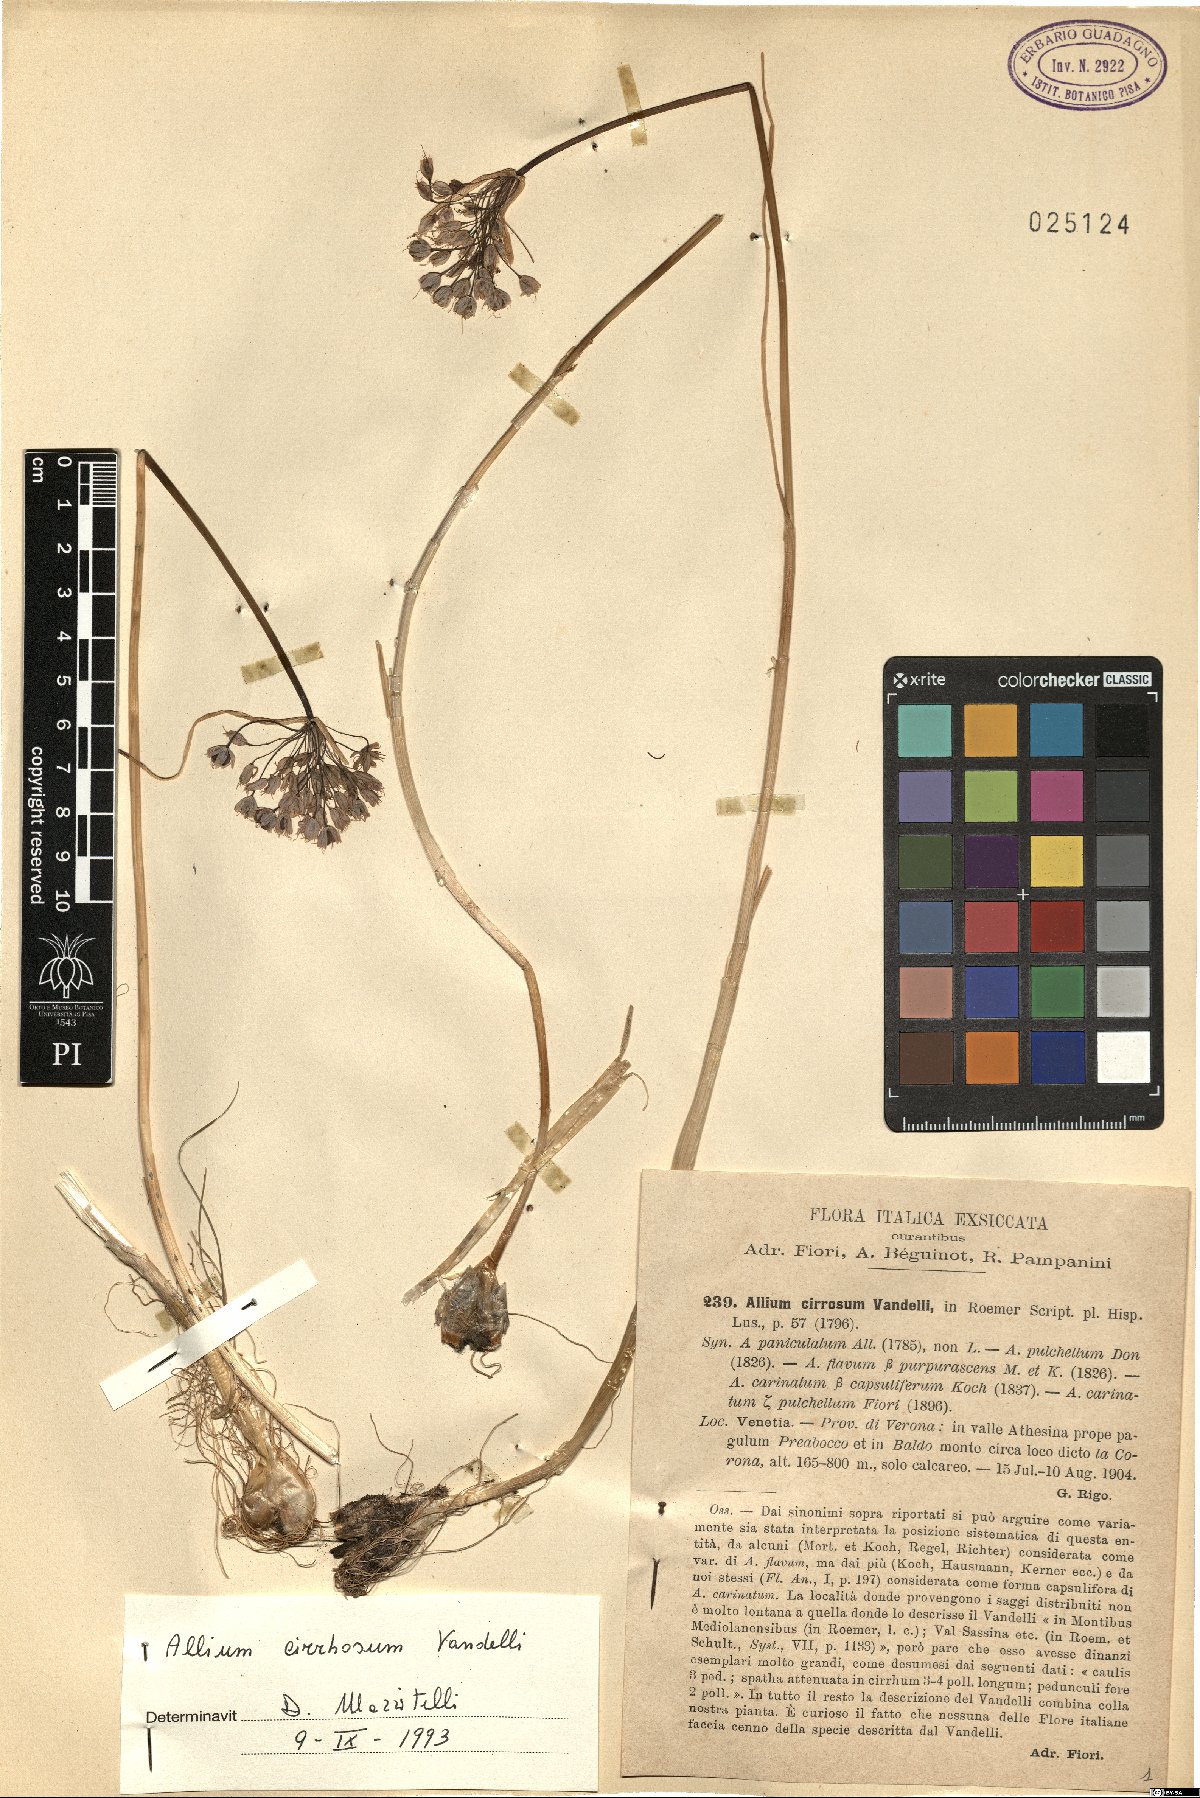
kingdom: Plantae
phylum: Tracheophyta
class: Liliopsida
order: Asparagales
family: Amaryllidaceae
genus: Allium
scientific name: Allium coloratum
